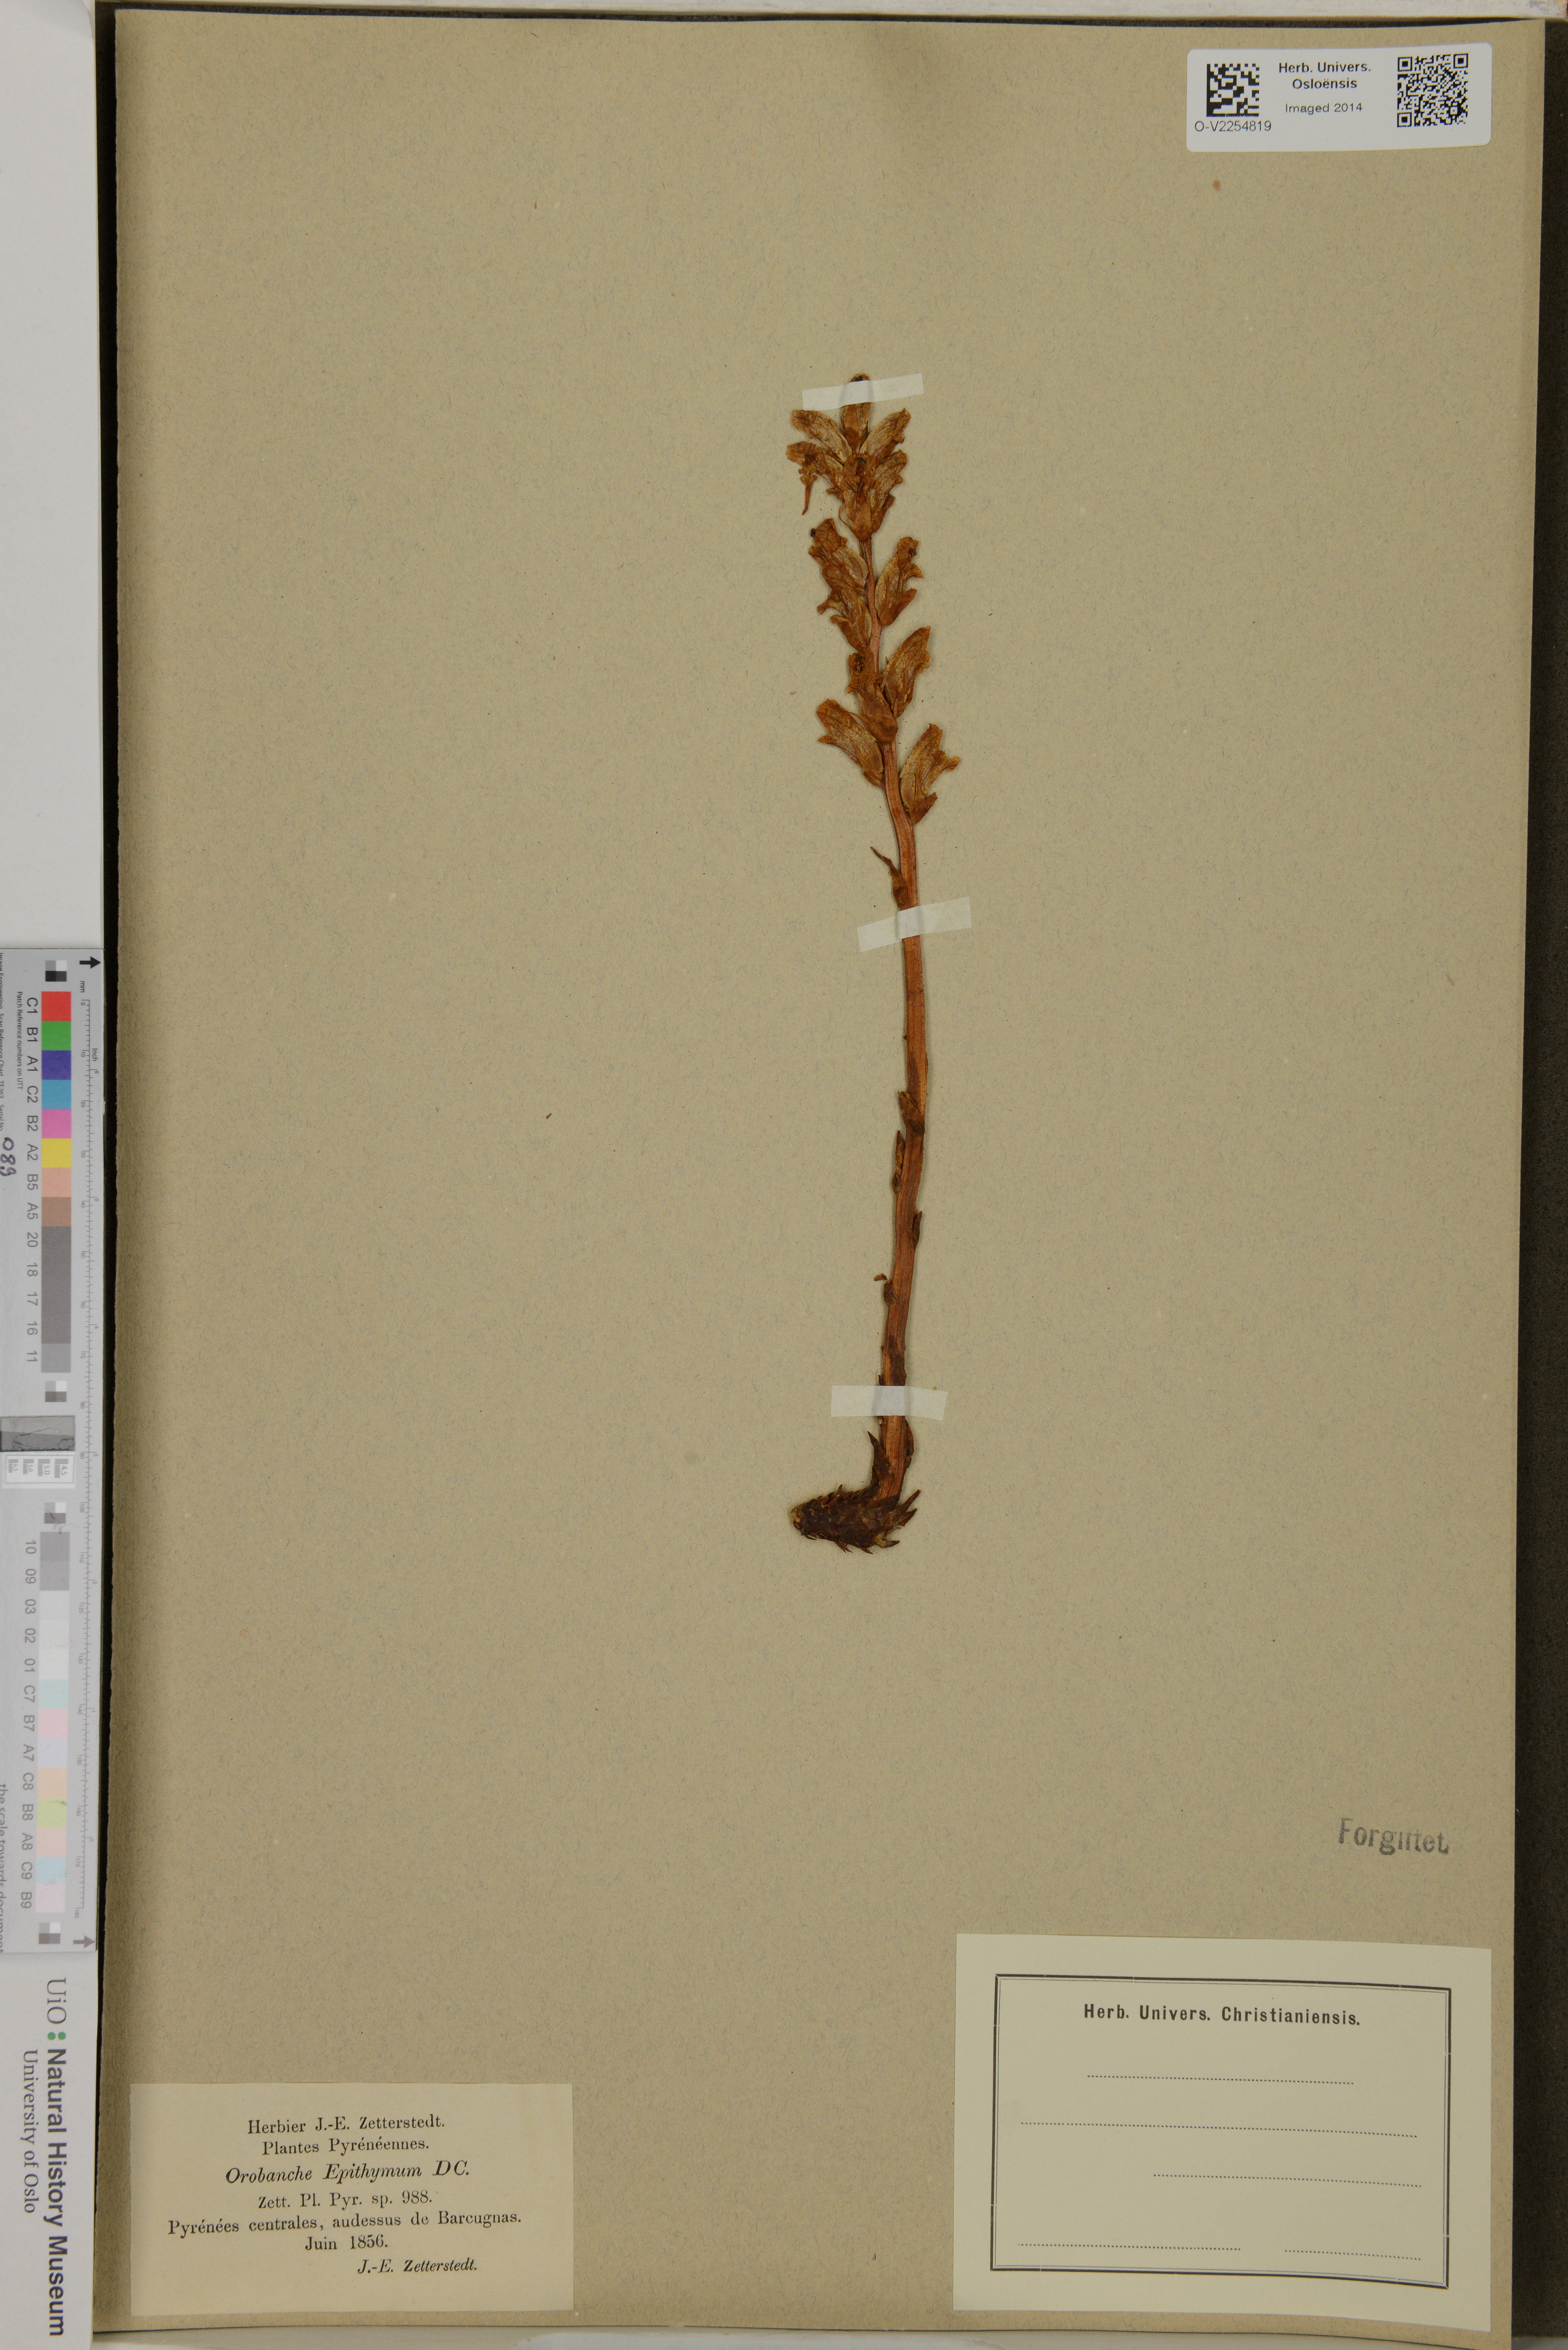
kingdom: Plantae
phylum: Tracheophyta
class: Magnoliopsida
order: Lamiales
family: Orobanchaceae
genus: Orobanche
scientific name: Orobanche alba
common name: Thyme broomrape
